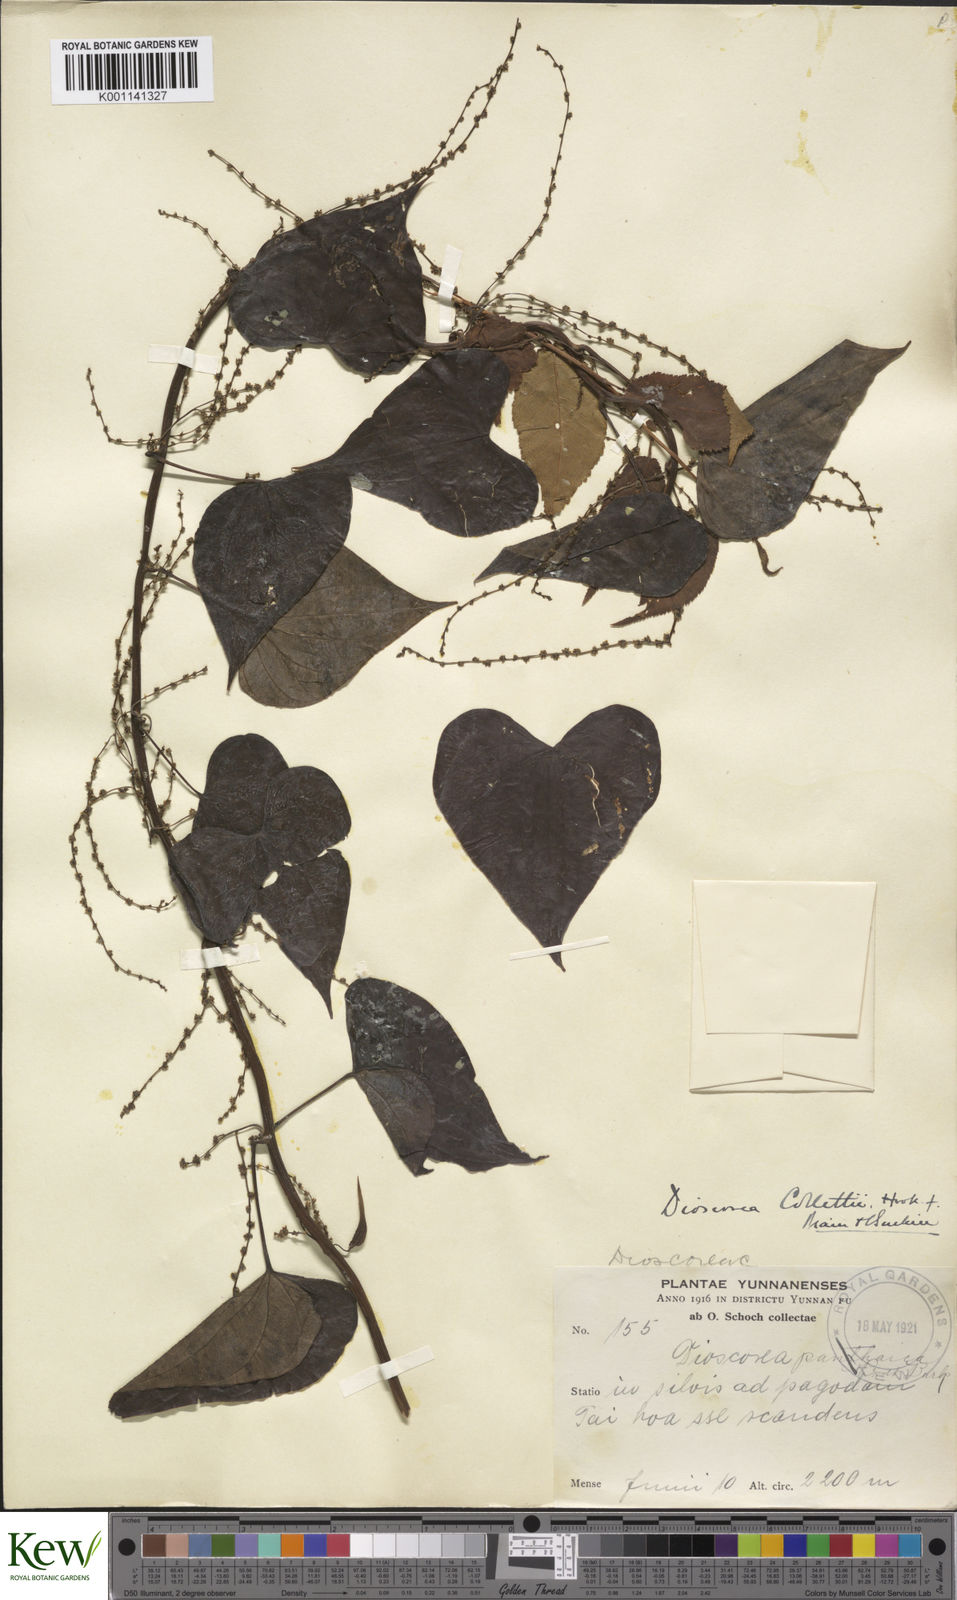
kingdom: Plantae
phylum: Tracheophyta
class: Liliopsida
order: Dioscoreales
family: Dioscoreaceae
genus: Dioscorea
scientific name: Dioscorea collettii
